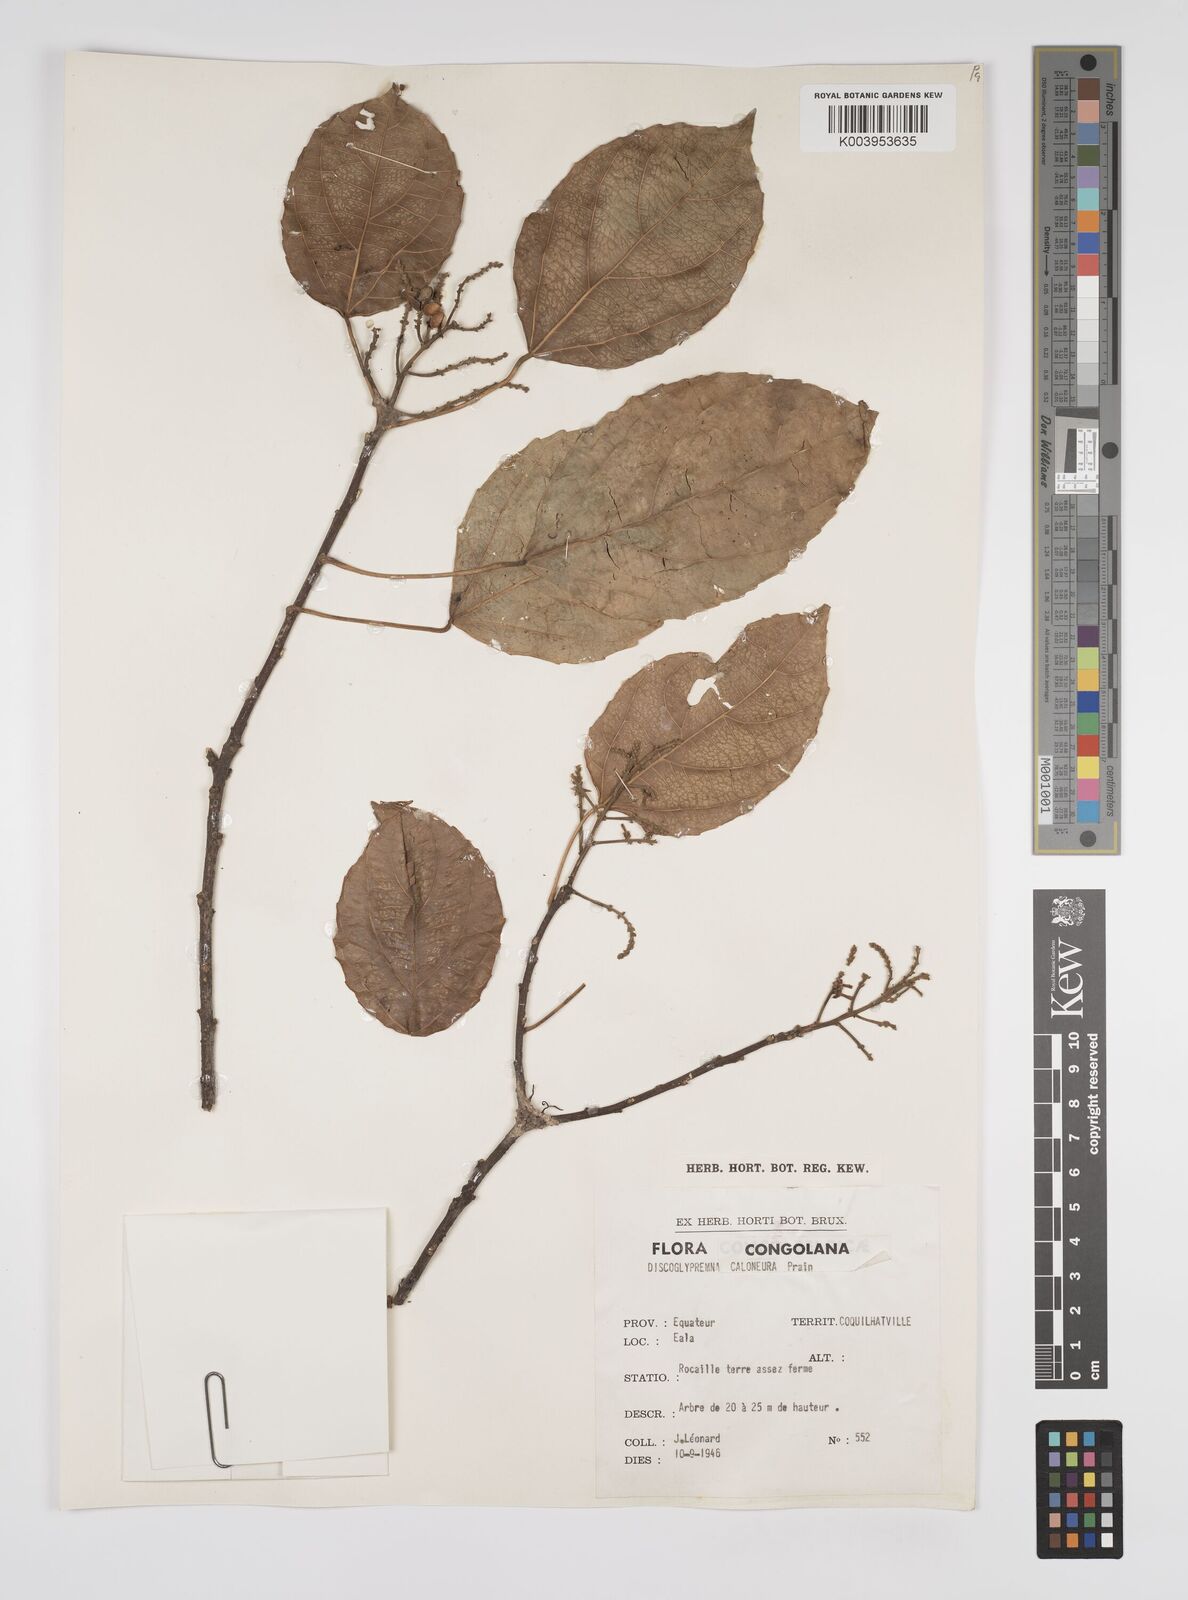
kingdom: Plantae
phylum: Tracheophyta
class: Magnoliopsida
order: Malpighiales
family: Euphorbiaceae
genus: Discoglypremna
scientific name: Discoglypremna caloneura
